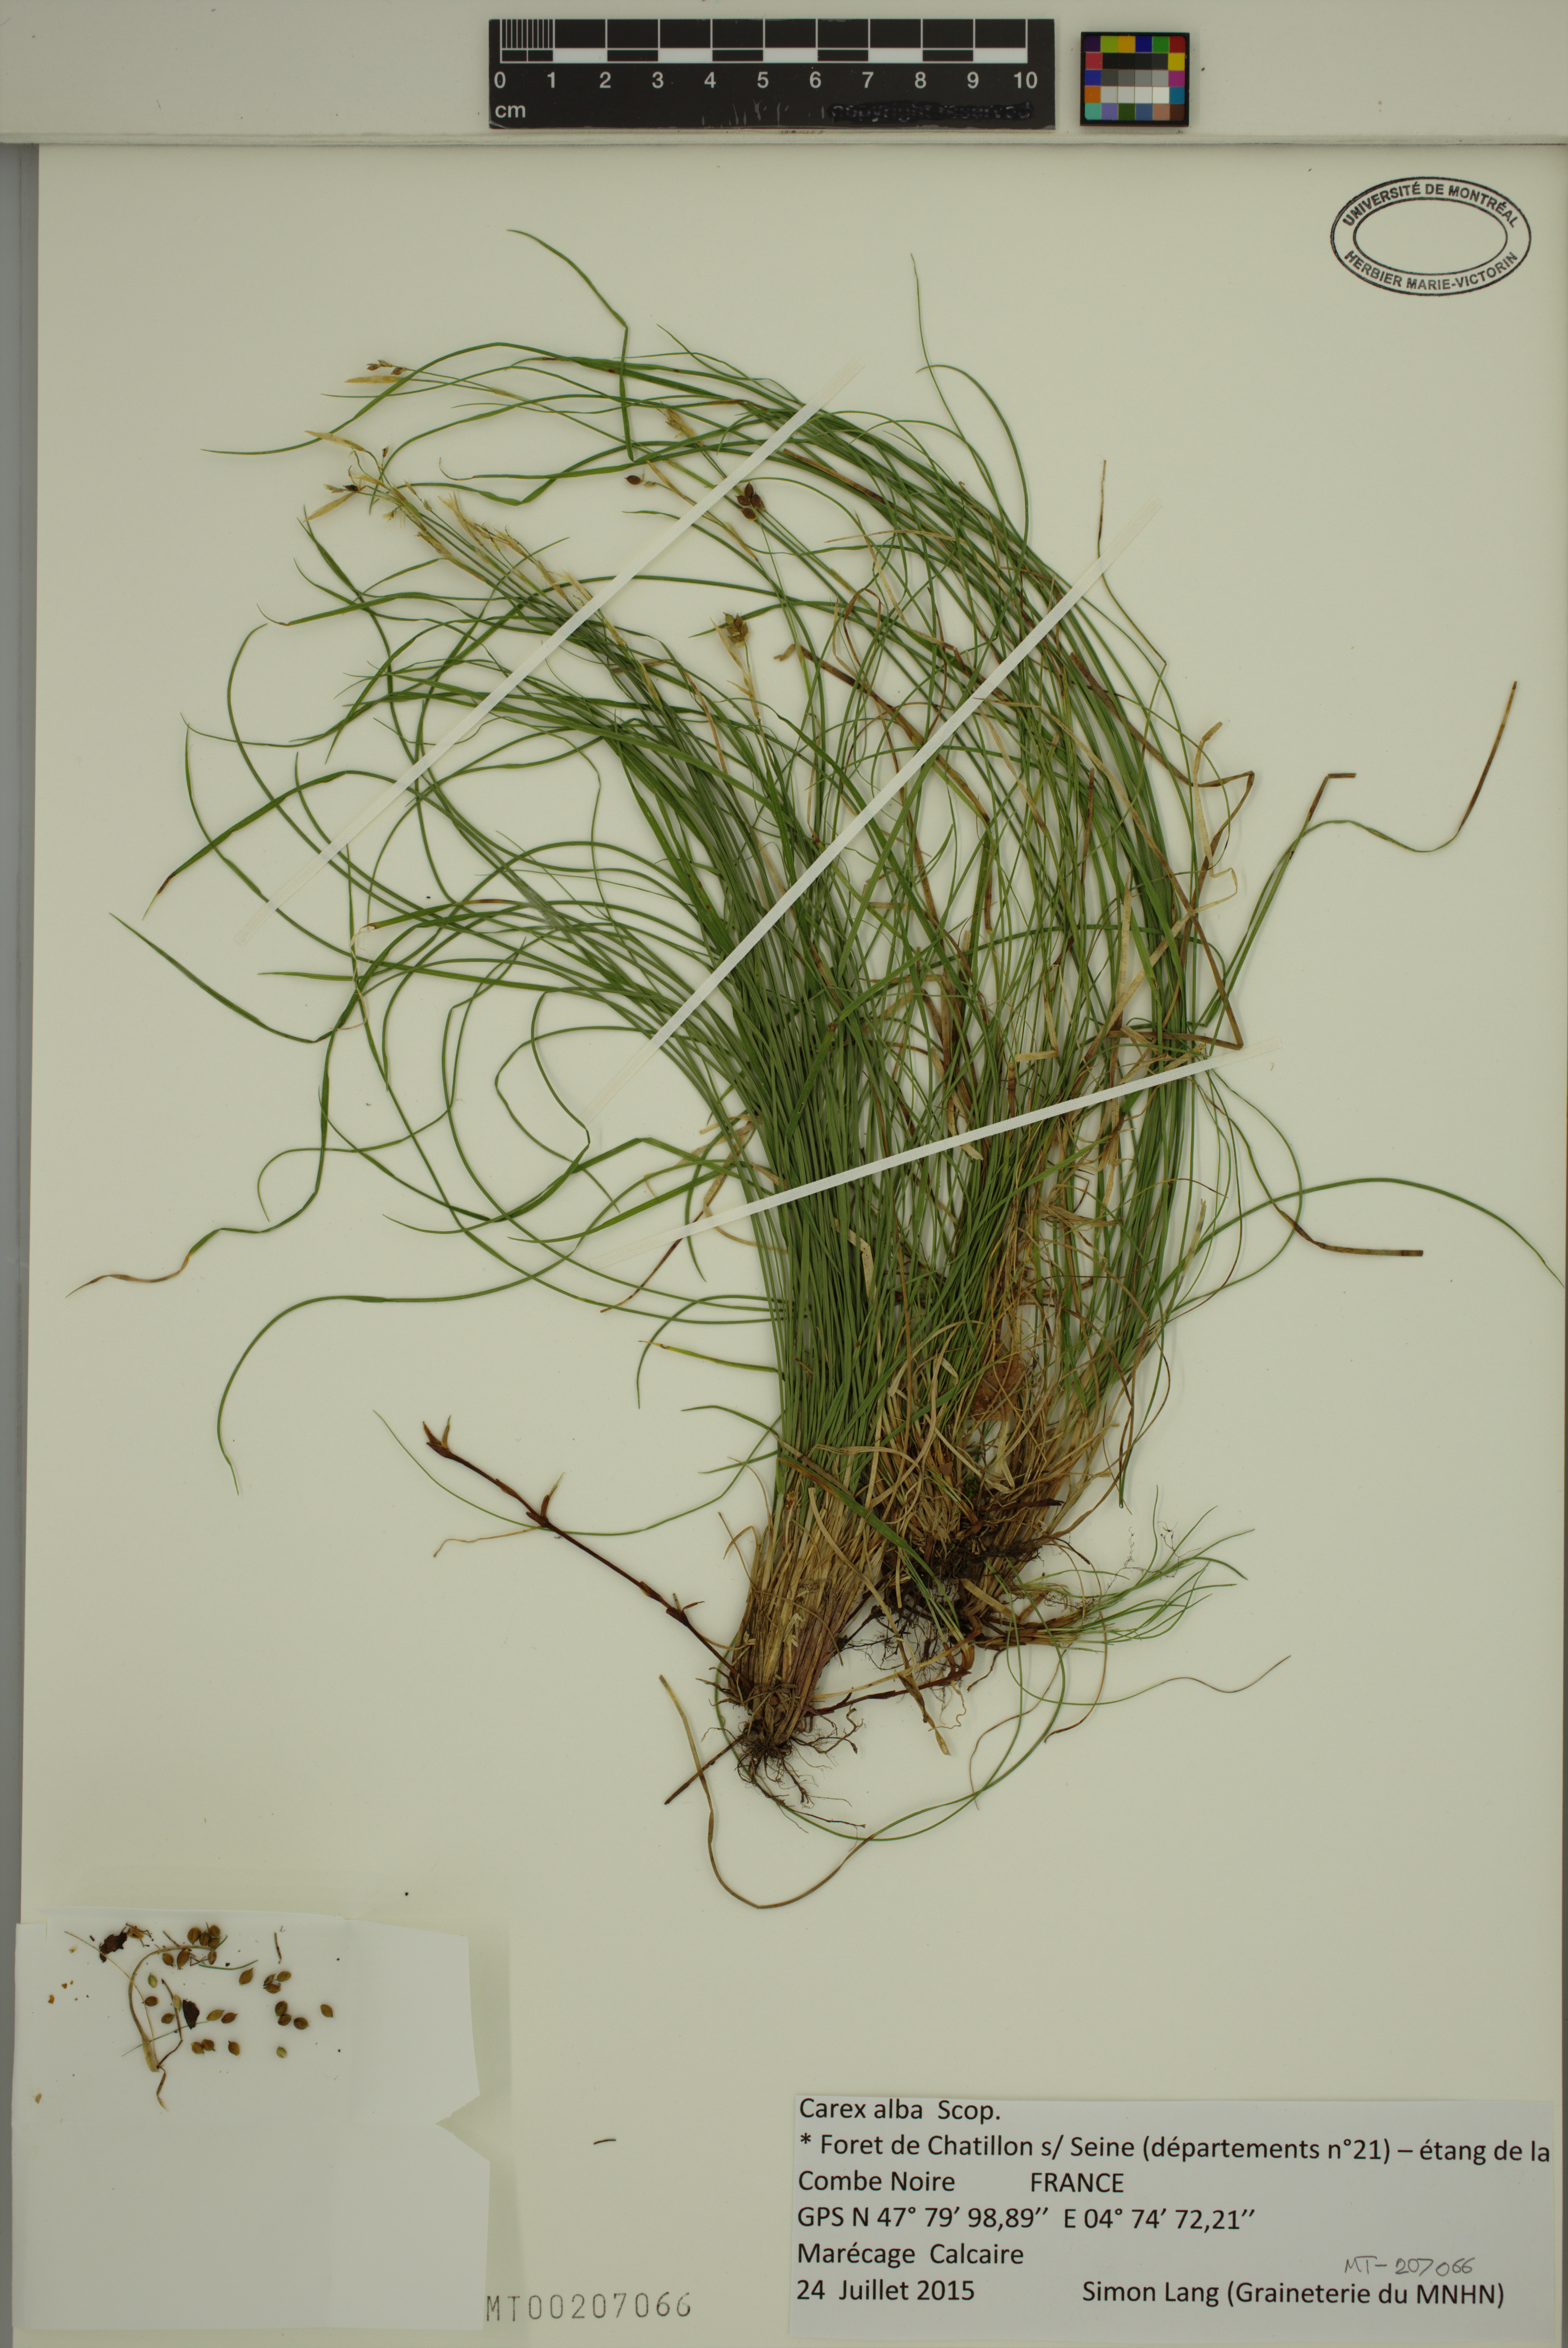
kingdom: Plantae
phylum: Tracheophyta
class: Liliopsida
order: Poales
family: Cyperaceae
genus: Carex
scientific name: Carex alba
